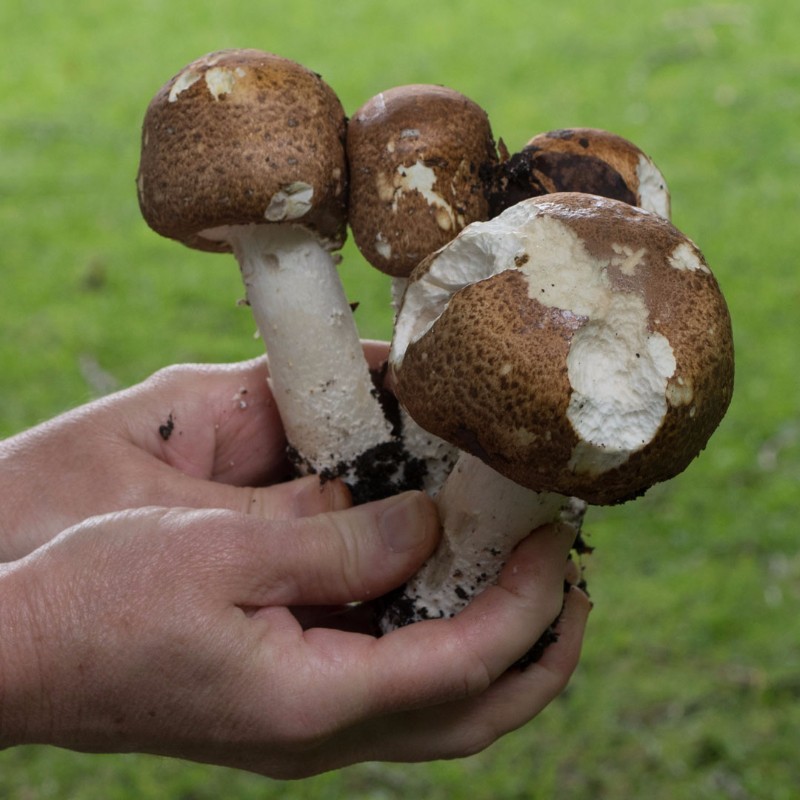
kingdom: Fungi
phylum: Basidiomycota
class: Agaricomycetes
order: Agaricales
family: Agaricaceae
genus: Agaricus
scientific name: Agaricus augustus
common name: prægtig champignon
